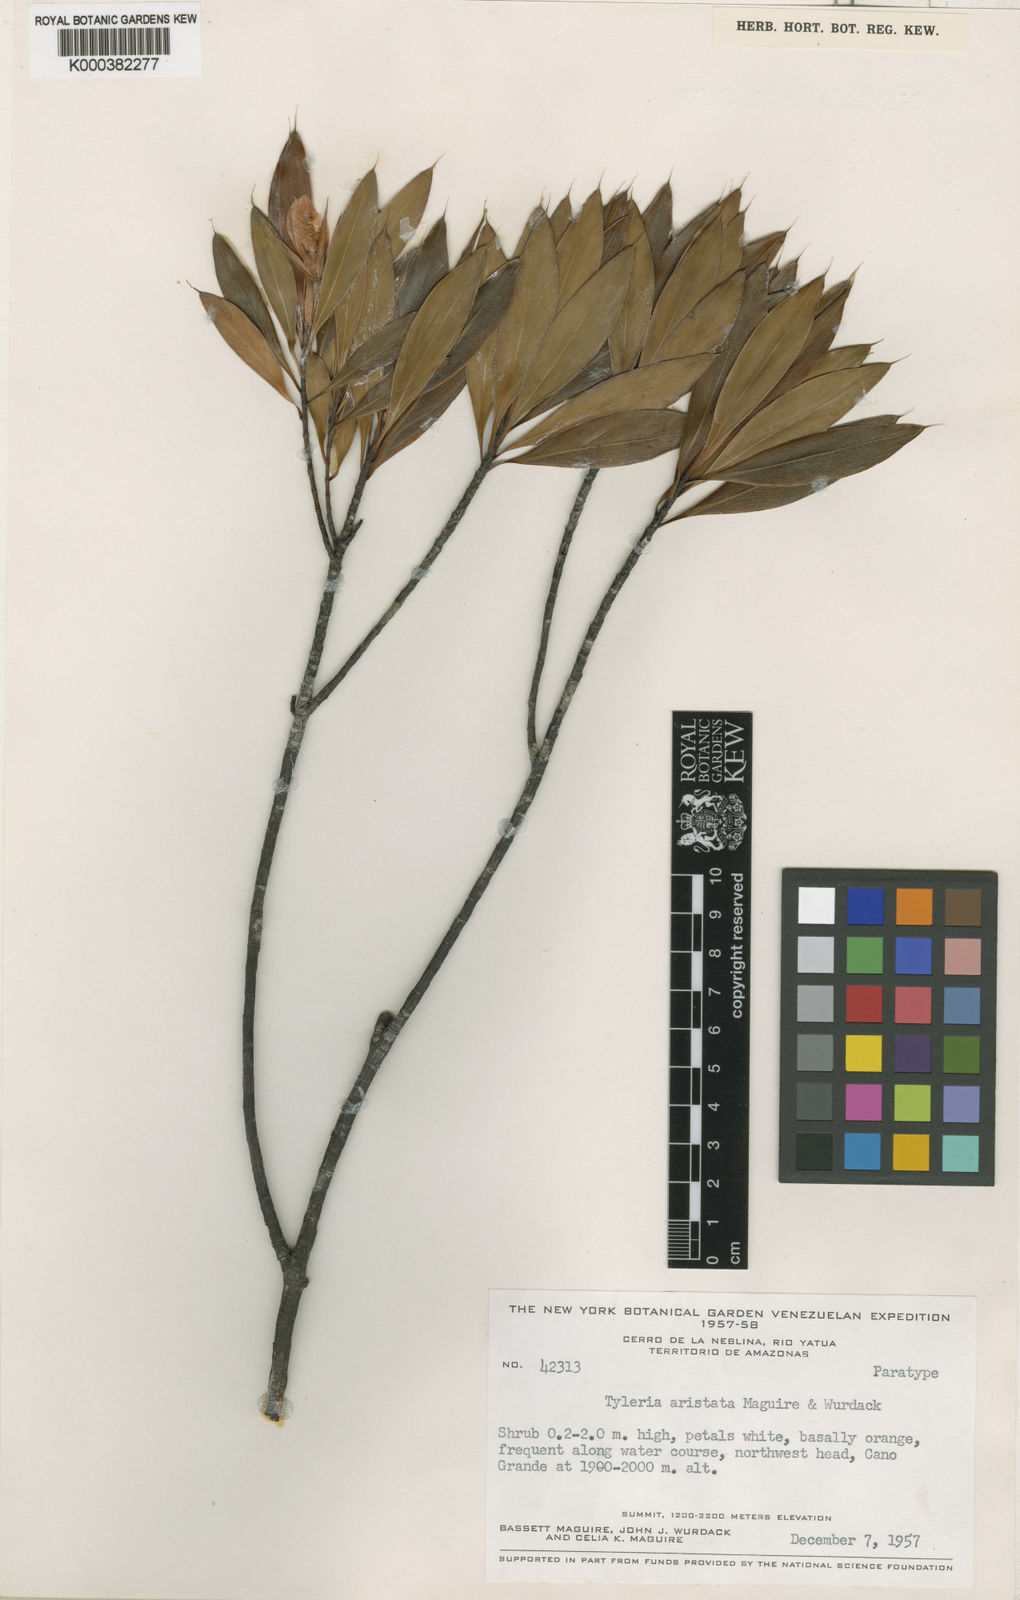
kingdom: Plantae
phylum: Tracheophyta
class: Magnoliopsida
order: Malpighiales
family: Ochnaceae
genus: Tyleria
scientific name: Tyleria aristata
